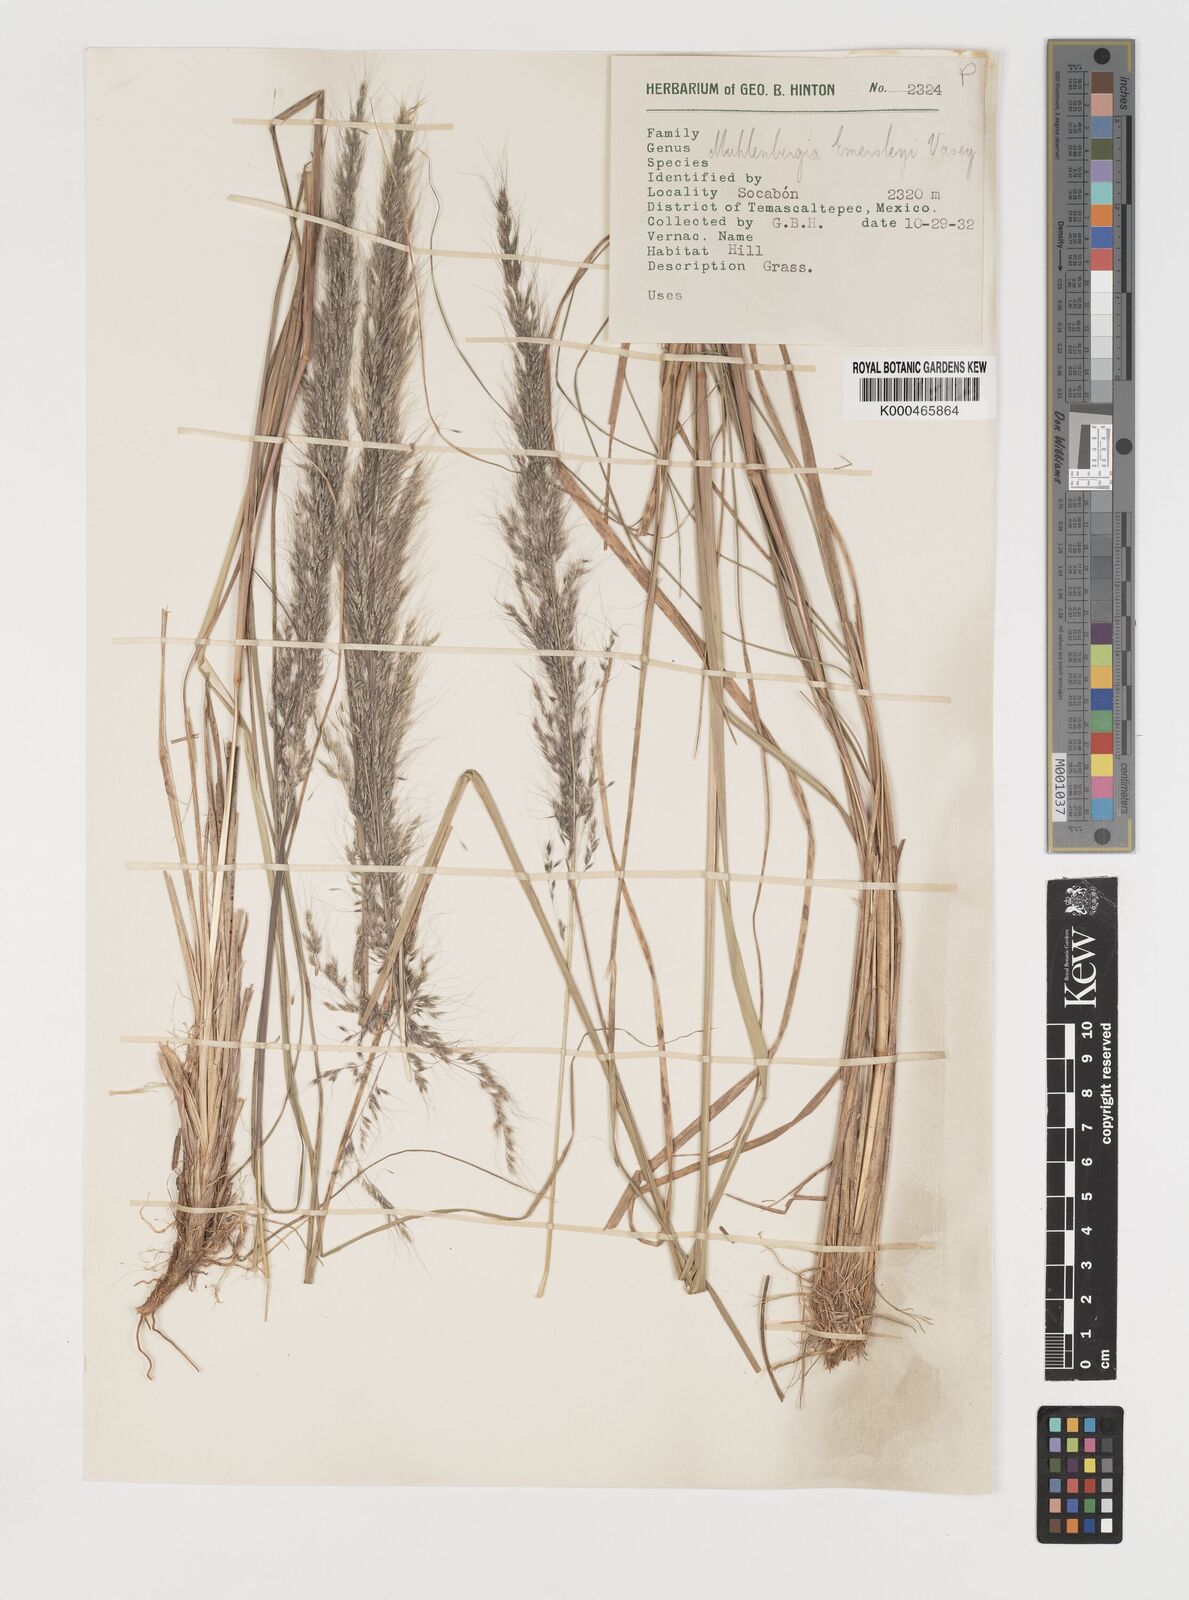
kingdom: Plantae
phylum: Tracheophyta
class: Liliopsida
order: Poales
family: Poaceae
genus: Muhlenbergia
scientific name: Muhlenbergia emersleyi
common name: Bull grass
